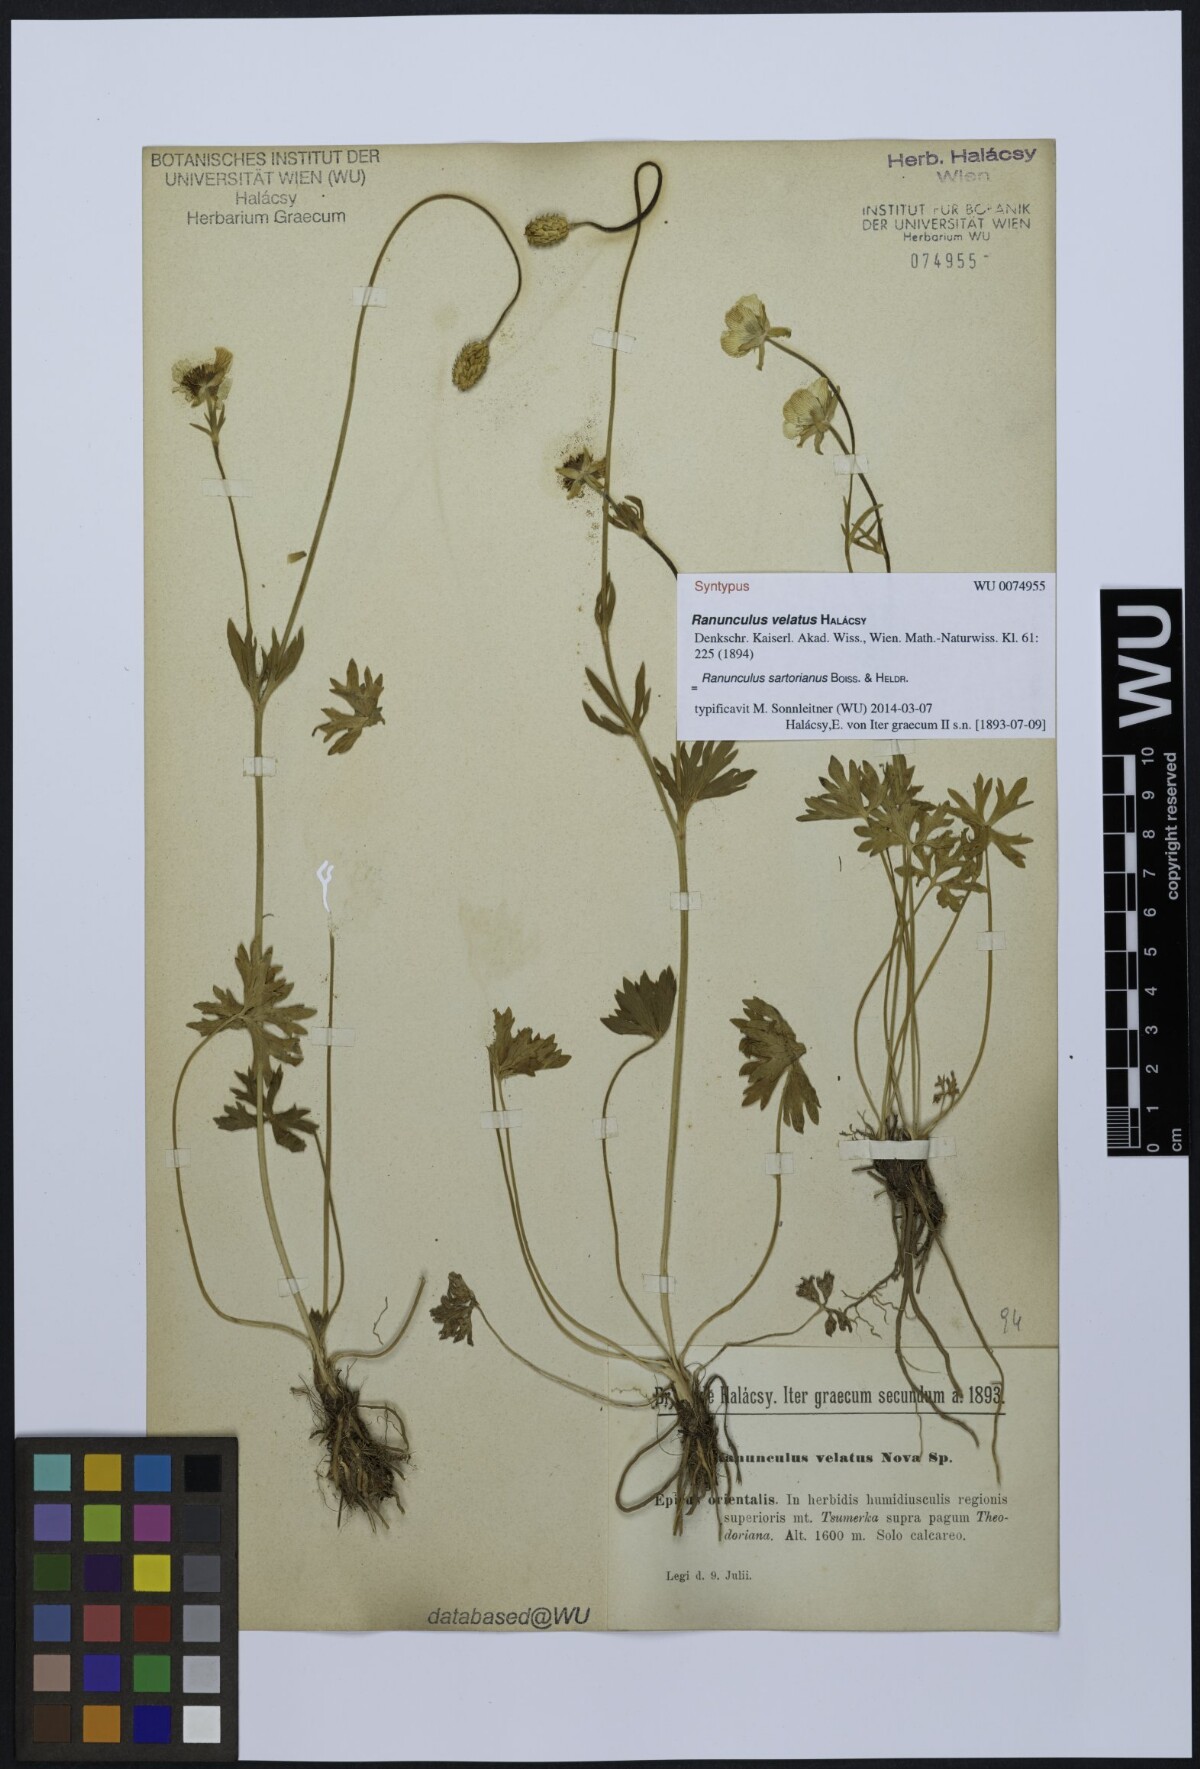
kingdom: Plantae
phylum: Tracheophyta
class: Magnoliopsida
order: Ranunculales
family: Ranunculaceae
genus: Ranunculus
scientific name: Ranunculus sartorianus
